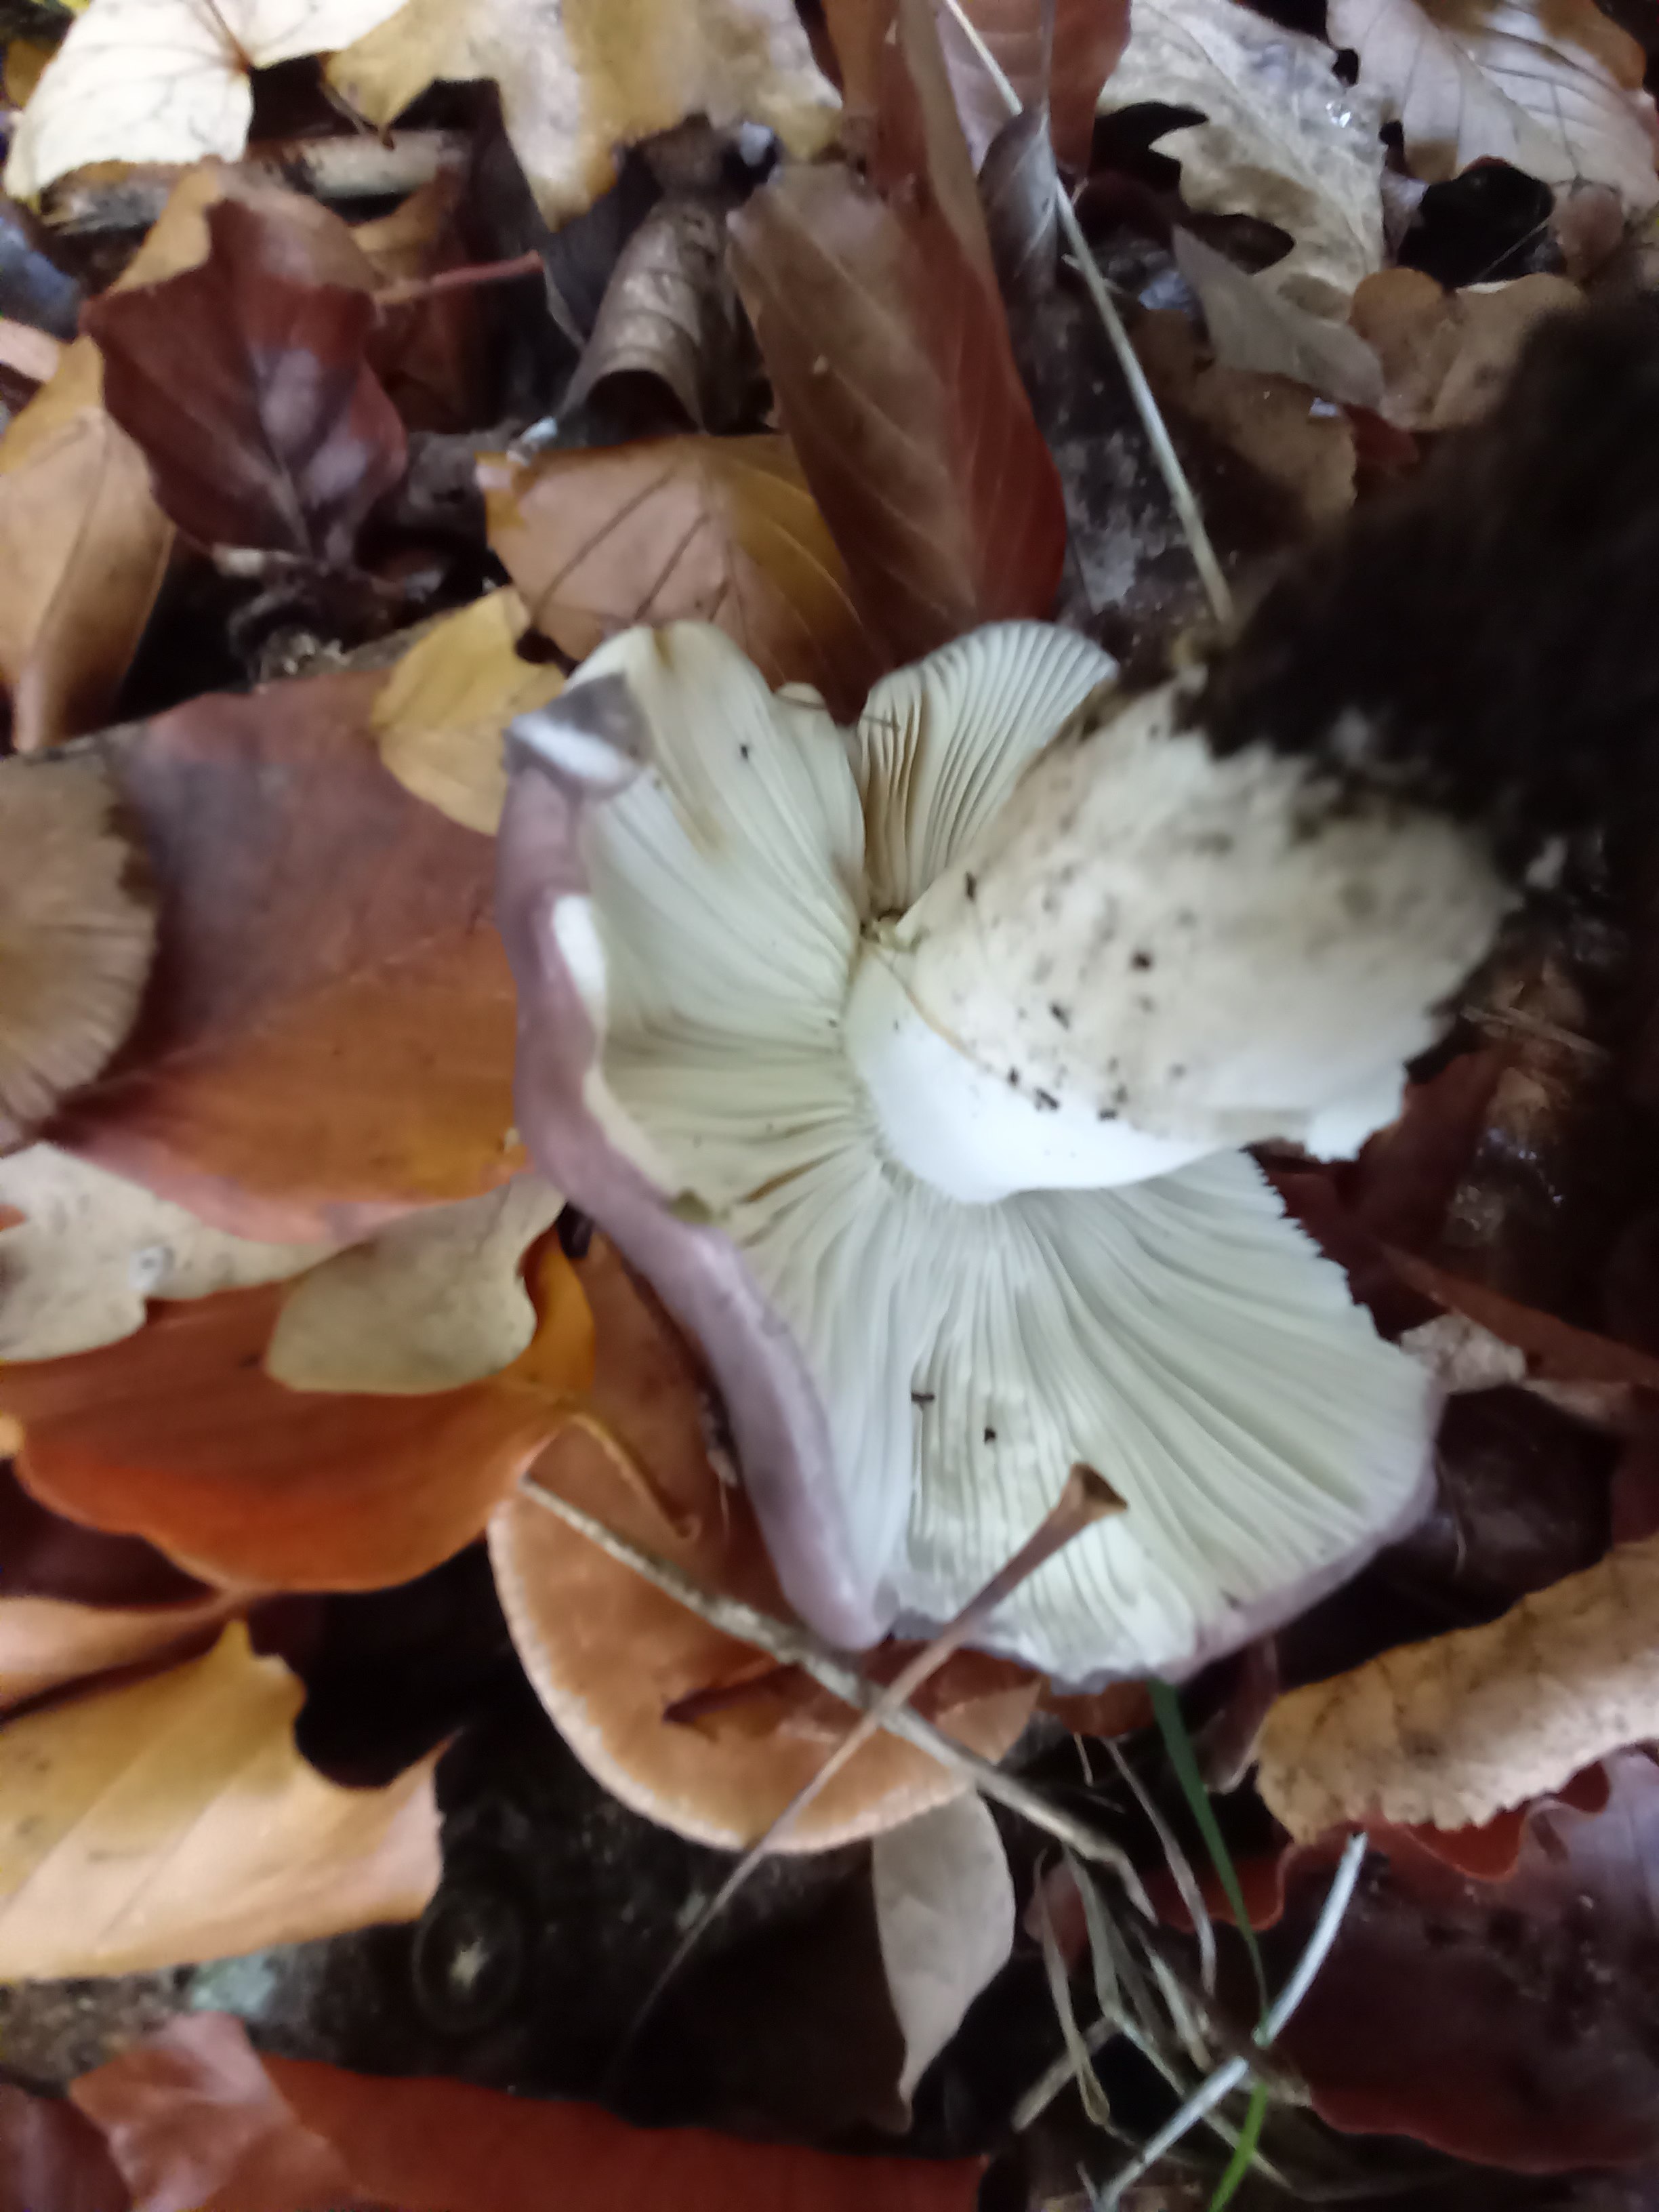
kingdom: Fungi
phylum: Basidiomycota
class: Agaricomycetes
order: Russulales
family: Russulaceae
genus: Russula
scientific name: Russula cyanoxantha
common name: broget skørhat
